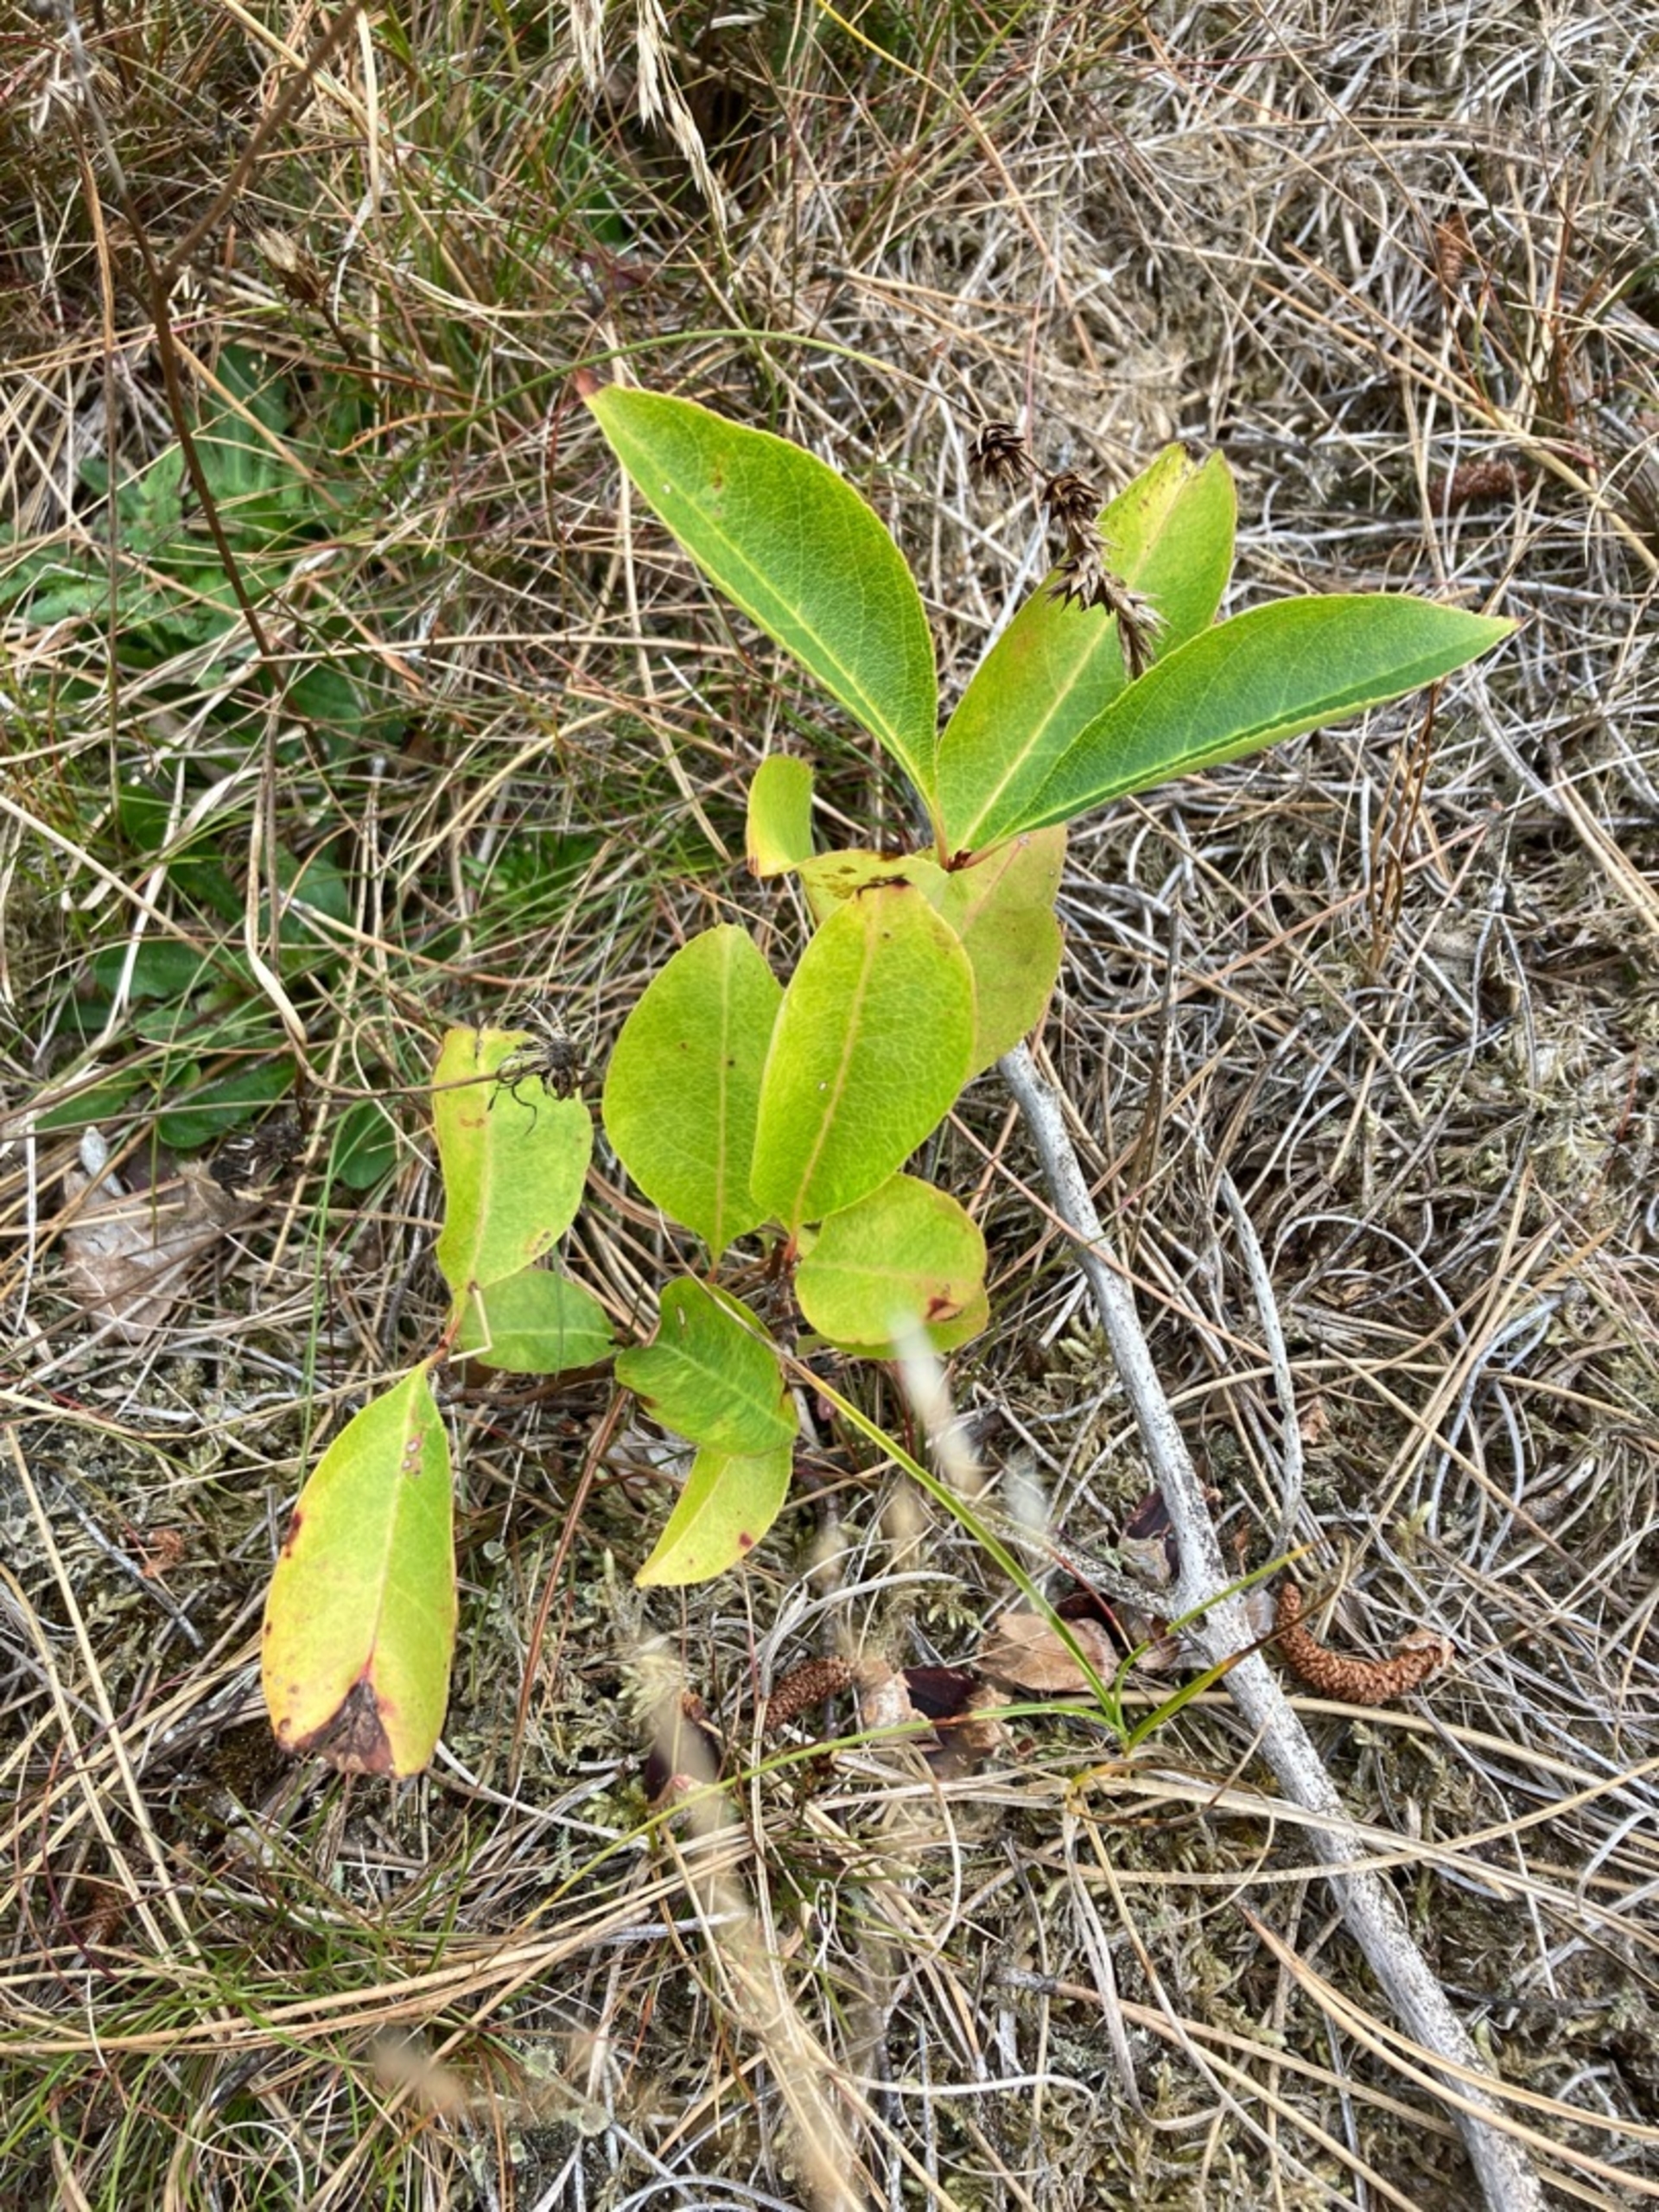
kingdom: Plantae
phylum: Tracheophyta
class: Magnoliopsida
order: Rosales
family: Rosaceae
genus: Prunus
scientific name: Prunus serotina
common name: Glansbladet hæg
